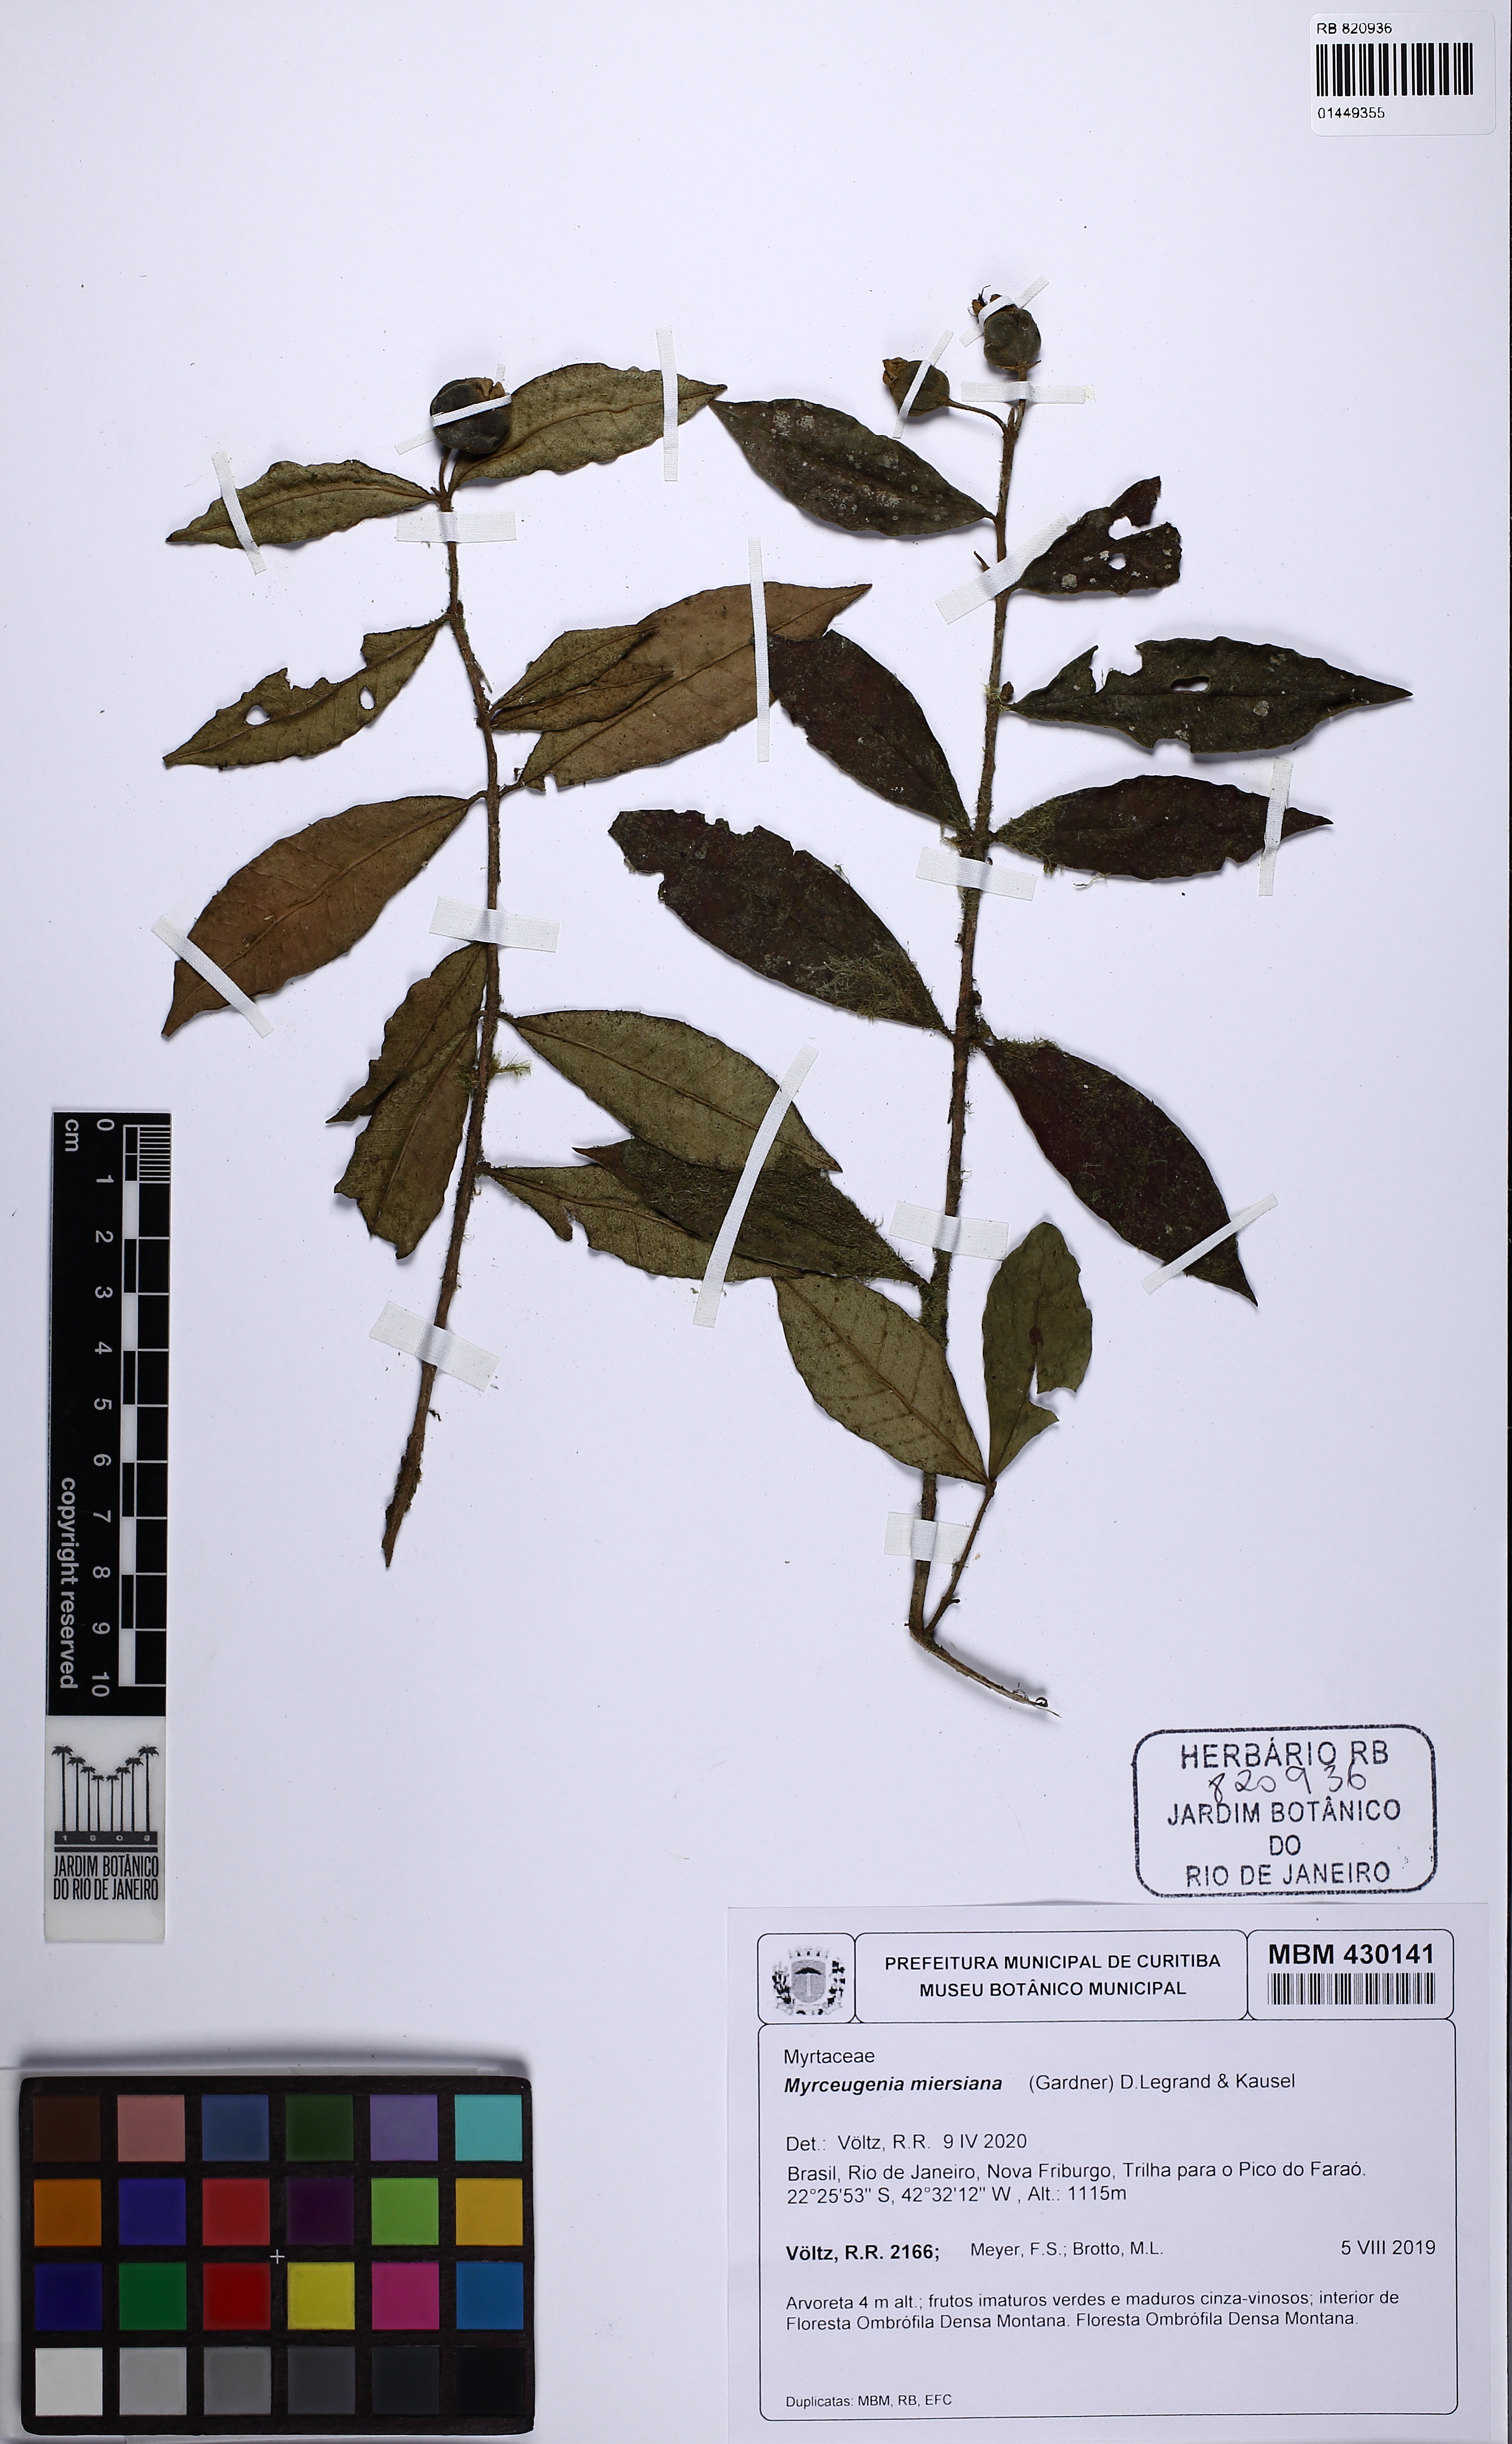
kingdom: Plantae
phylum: Tracheophyta
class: Magnoliopsida
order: Myrtales
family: Myrtaceae
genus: Myrceugenia
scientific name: Myrceugenia miersiana
